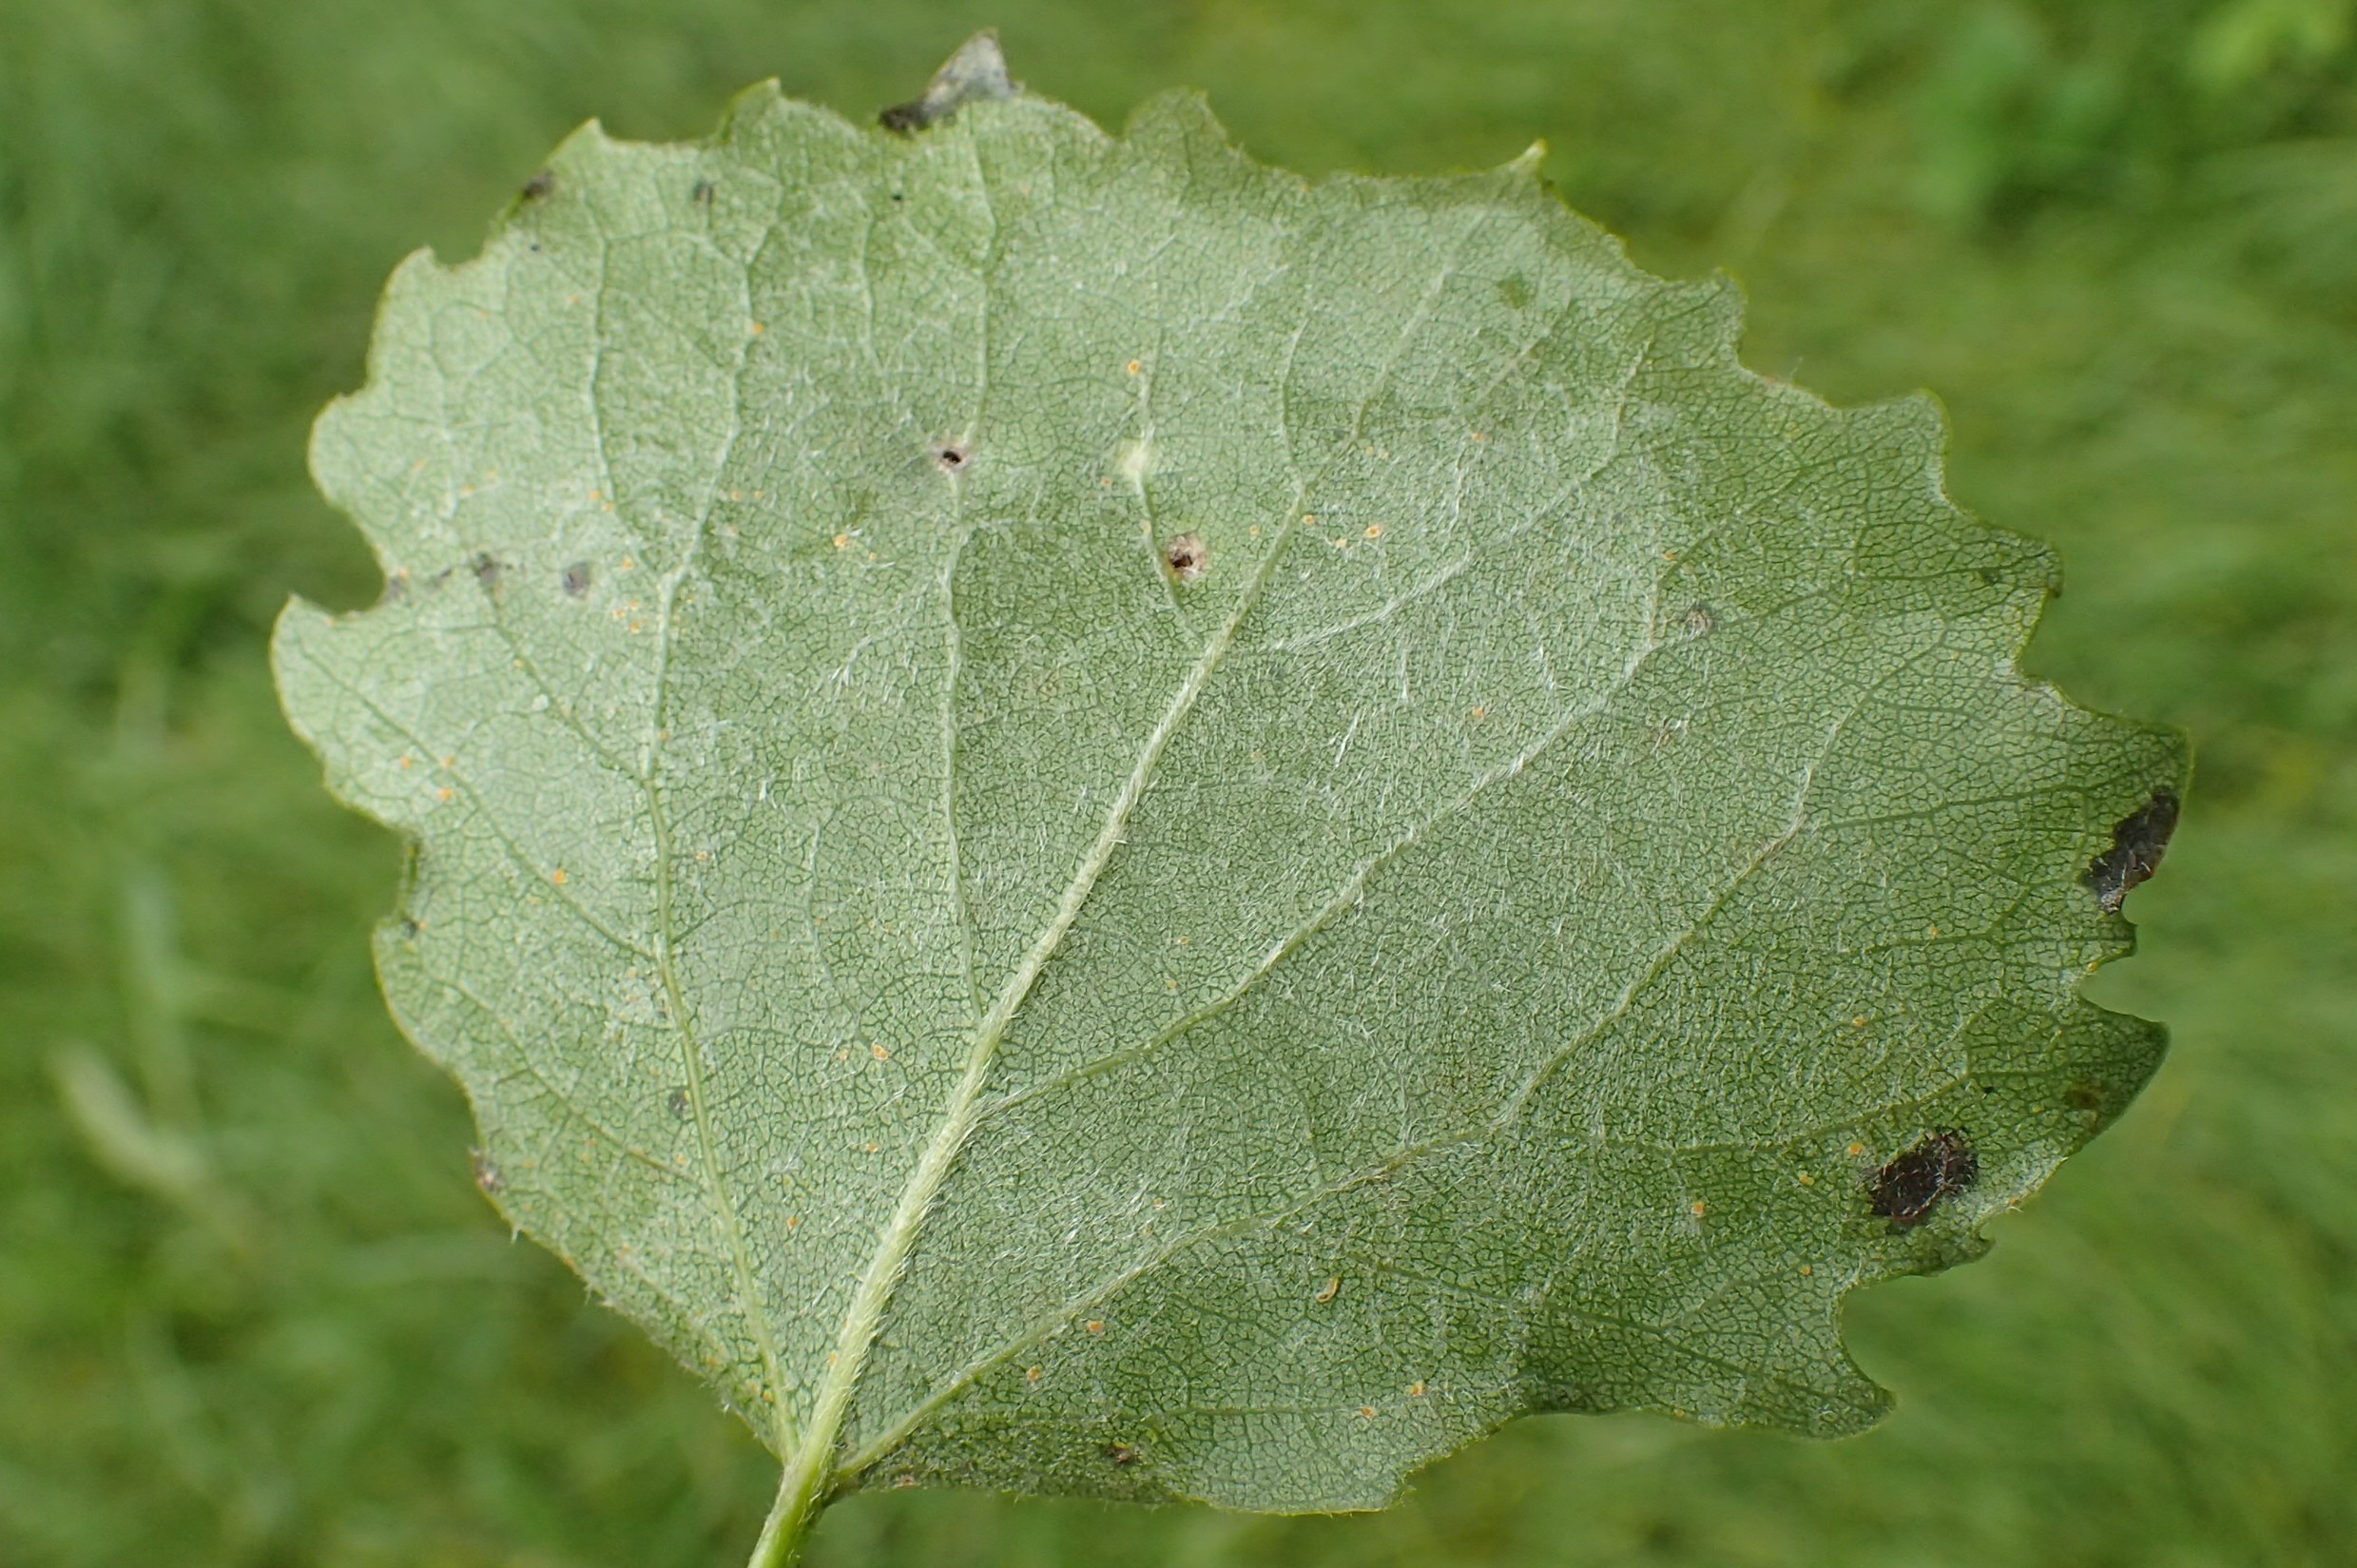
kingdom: Animalia
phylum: Arthropoda
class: Insecta
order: Diptera
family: Cecidomyiidae
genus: Harmandiola
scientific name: Harmandiola globuli
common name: Aspekravegalmyg
